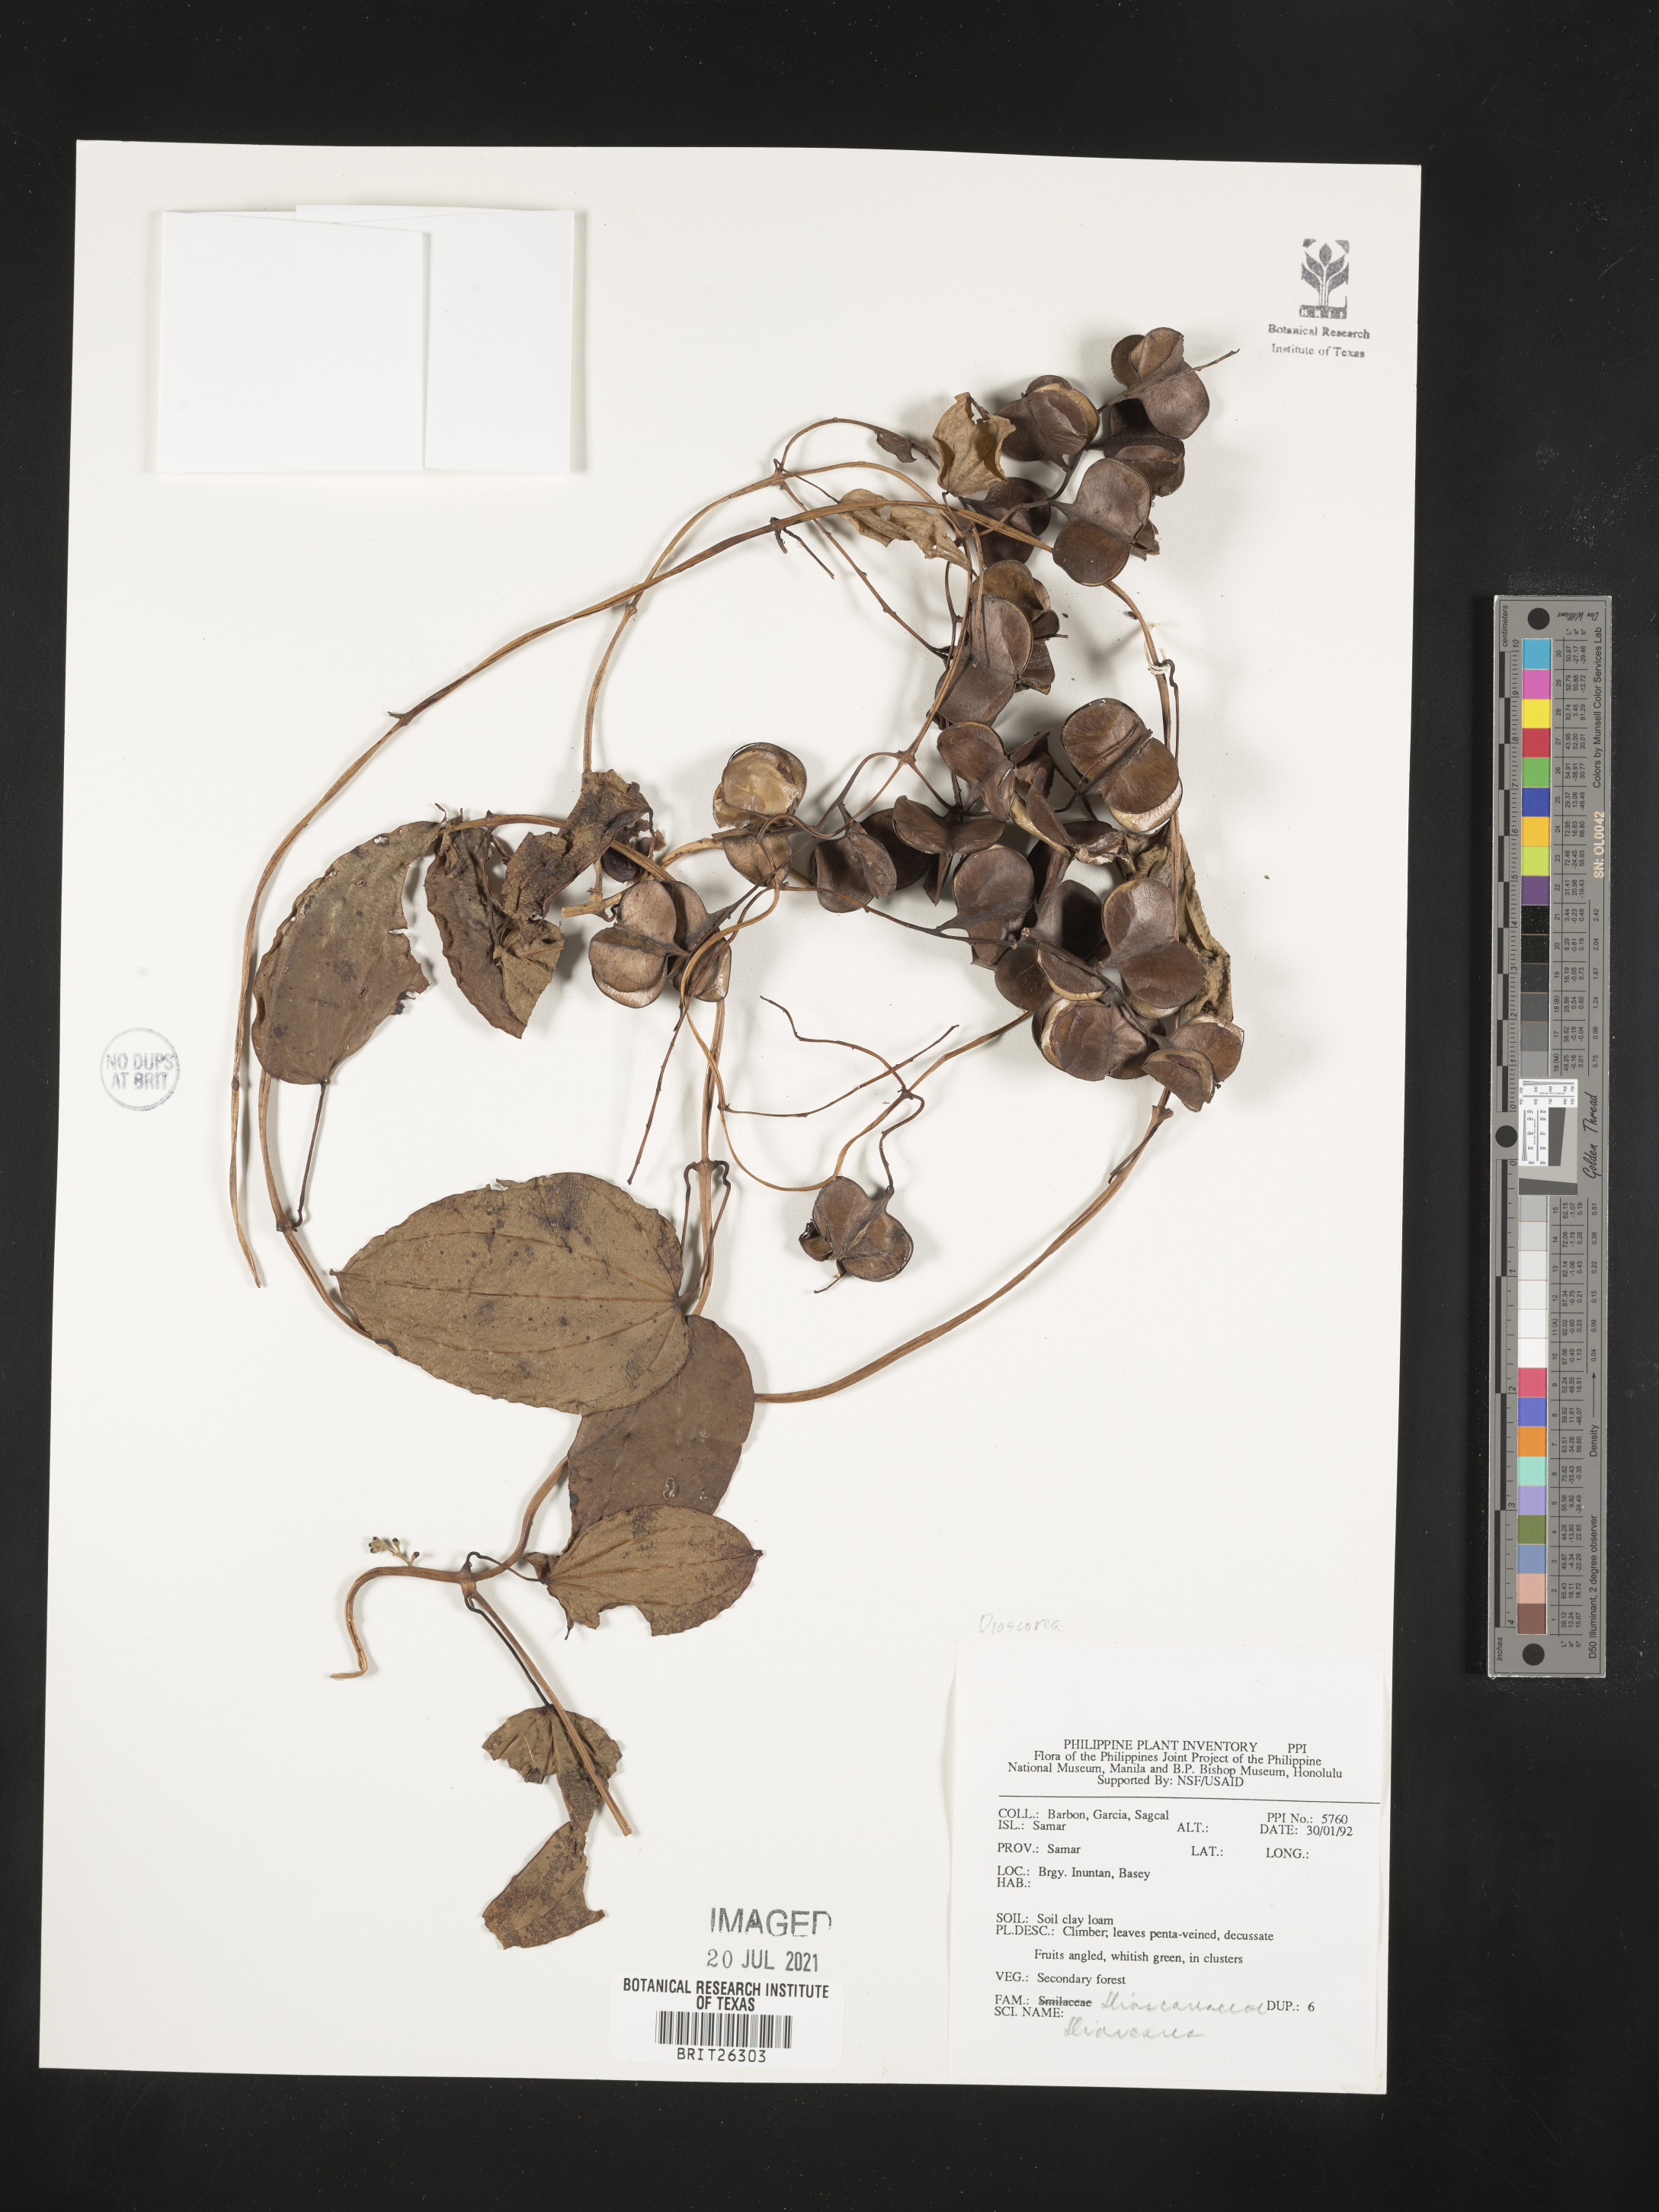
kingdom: Plantae
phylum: Tracheophyta
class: Liliopsida
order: Dioscoreales
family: Dioscoreaceae
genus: Dioscorea
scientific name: Dioscorea
